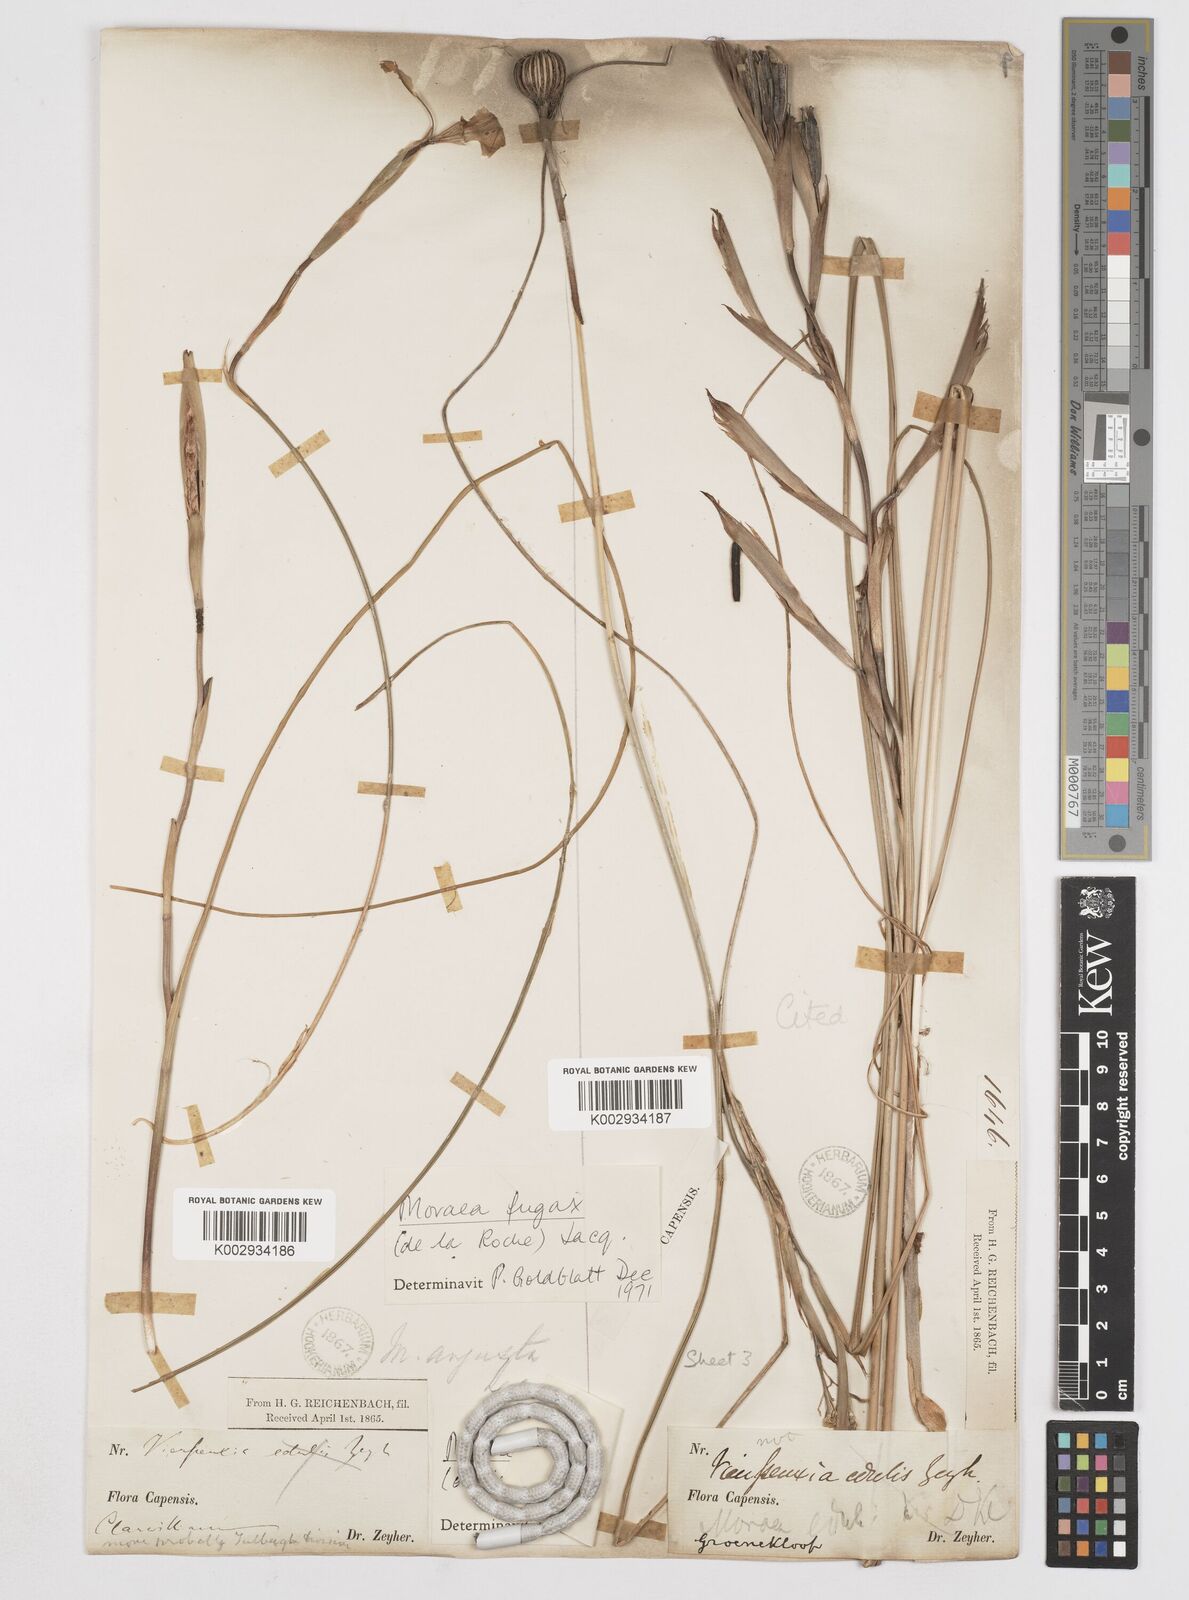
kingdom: Plantae
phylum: Tracheophyta
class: Liliopsida
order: Asparagales
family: Iridaceae
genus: Moraea
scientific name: Moraea fugax
